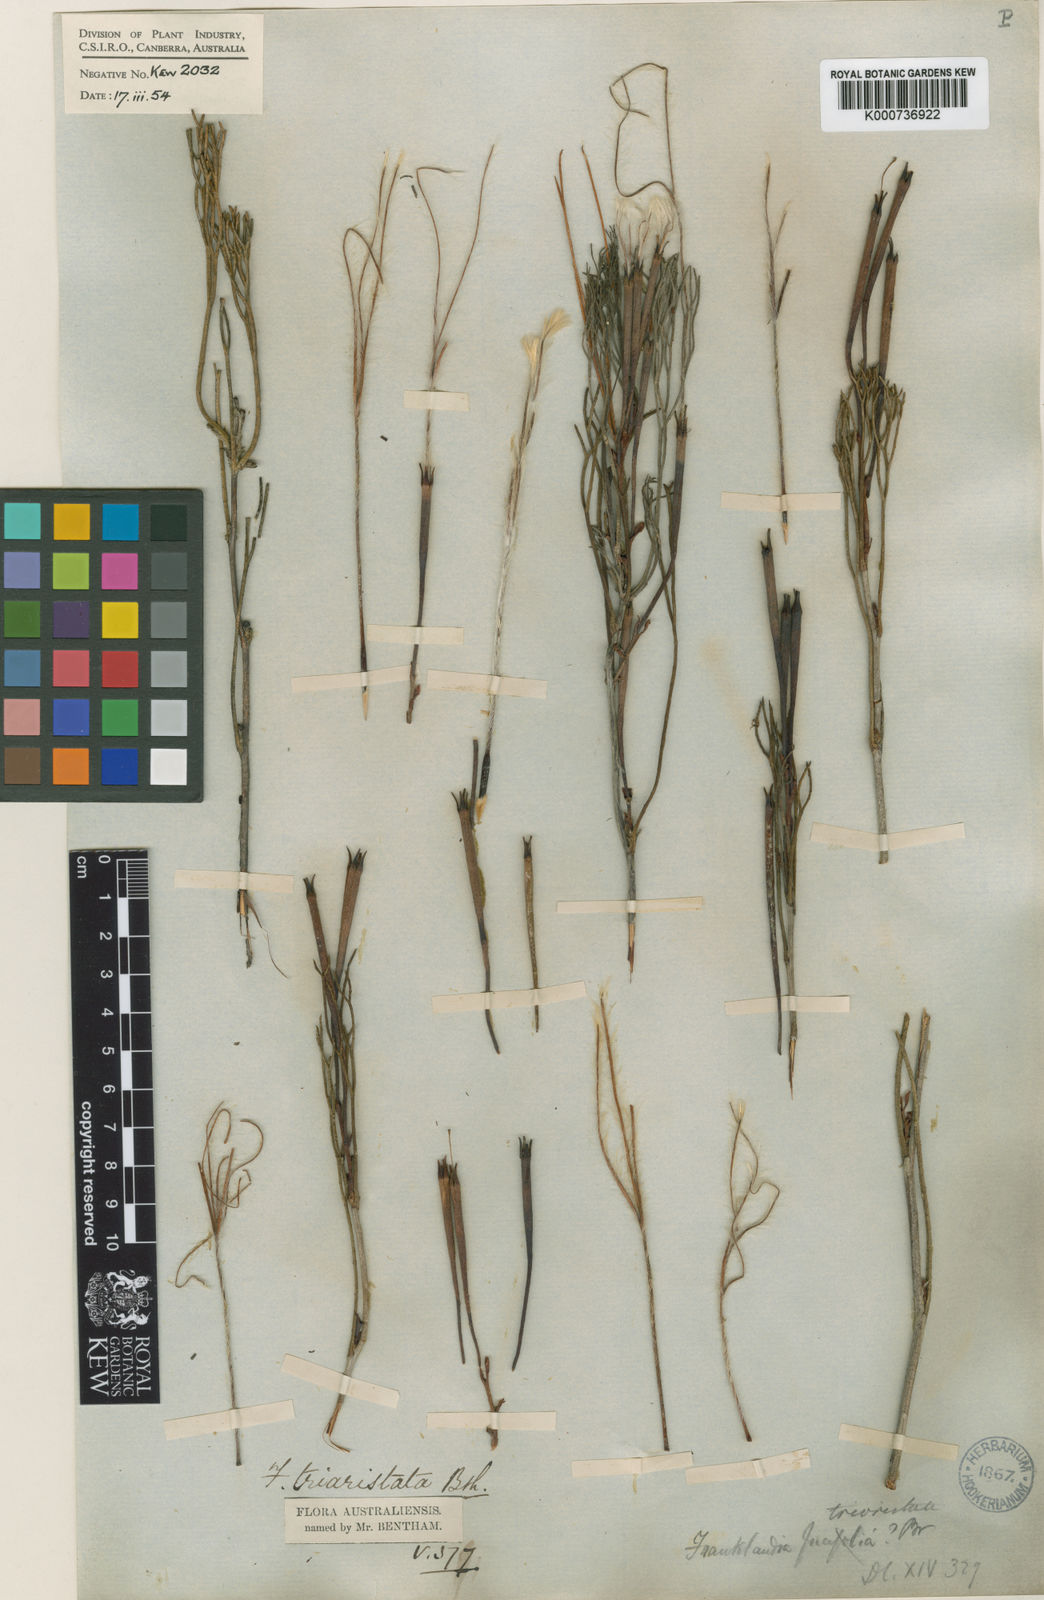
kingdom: Plantae
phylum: Tracheophyta
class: Magnoliopsida
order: Proteales
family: Proteaceae
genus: Franklandia
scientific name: Franklandia triaristata
